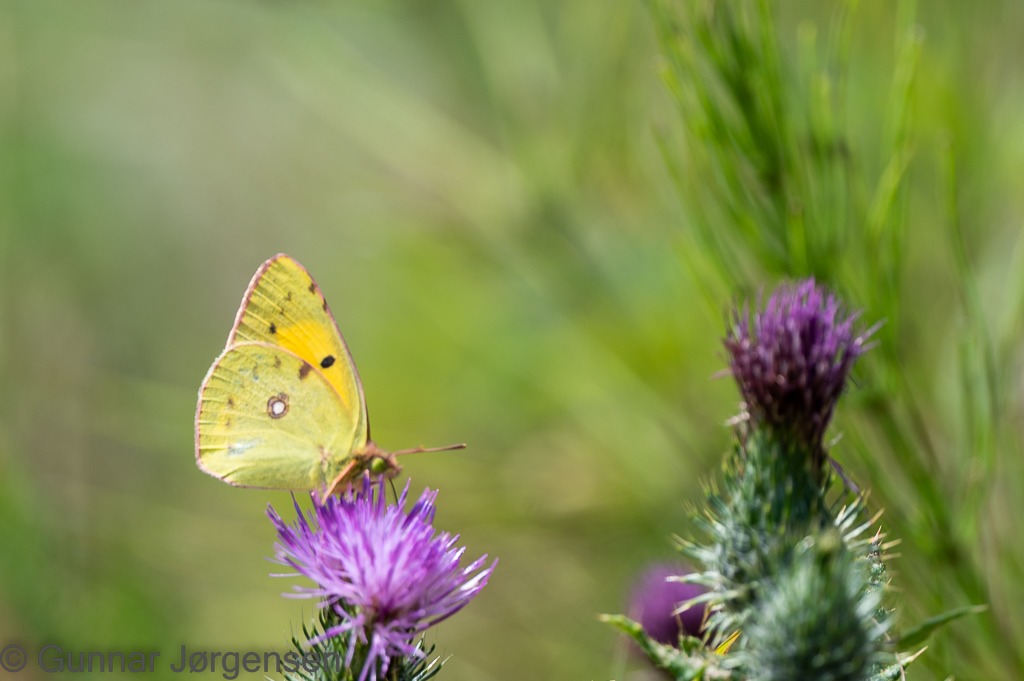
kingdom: Animalia
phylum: Arthropoda
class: Insecta
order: Lepidoptera
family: Pieridae
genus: Colias
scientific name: Colias croceus
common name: Orange høsommerfugl
